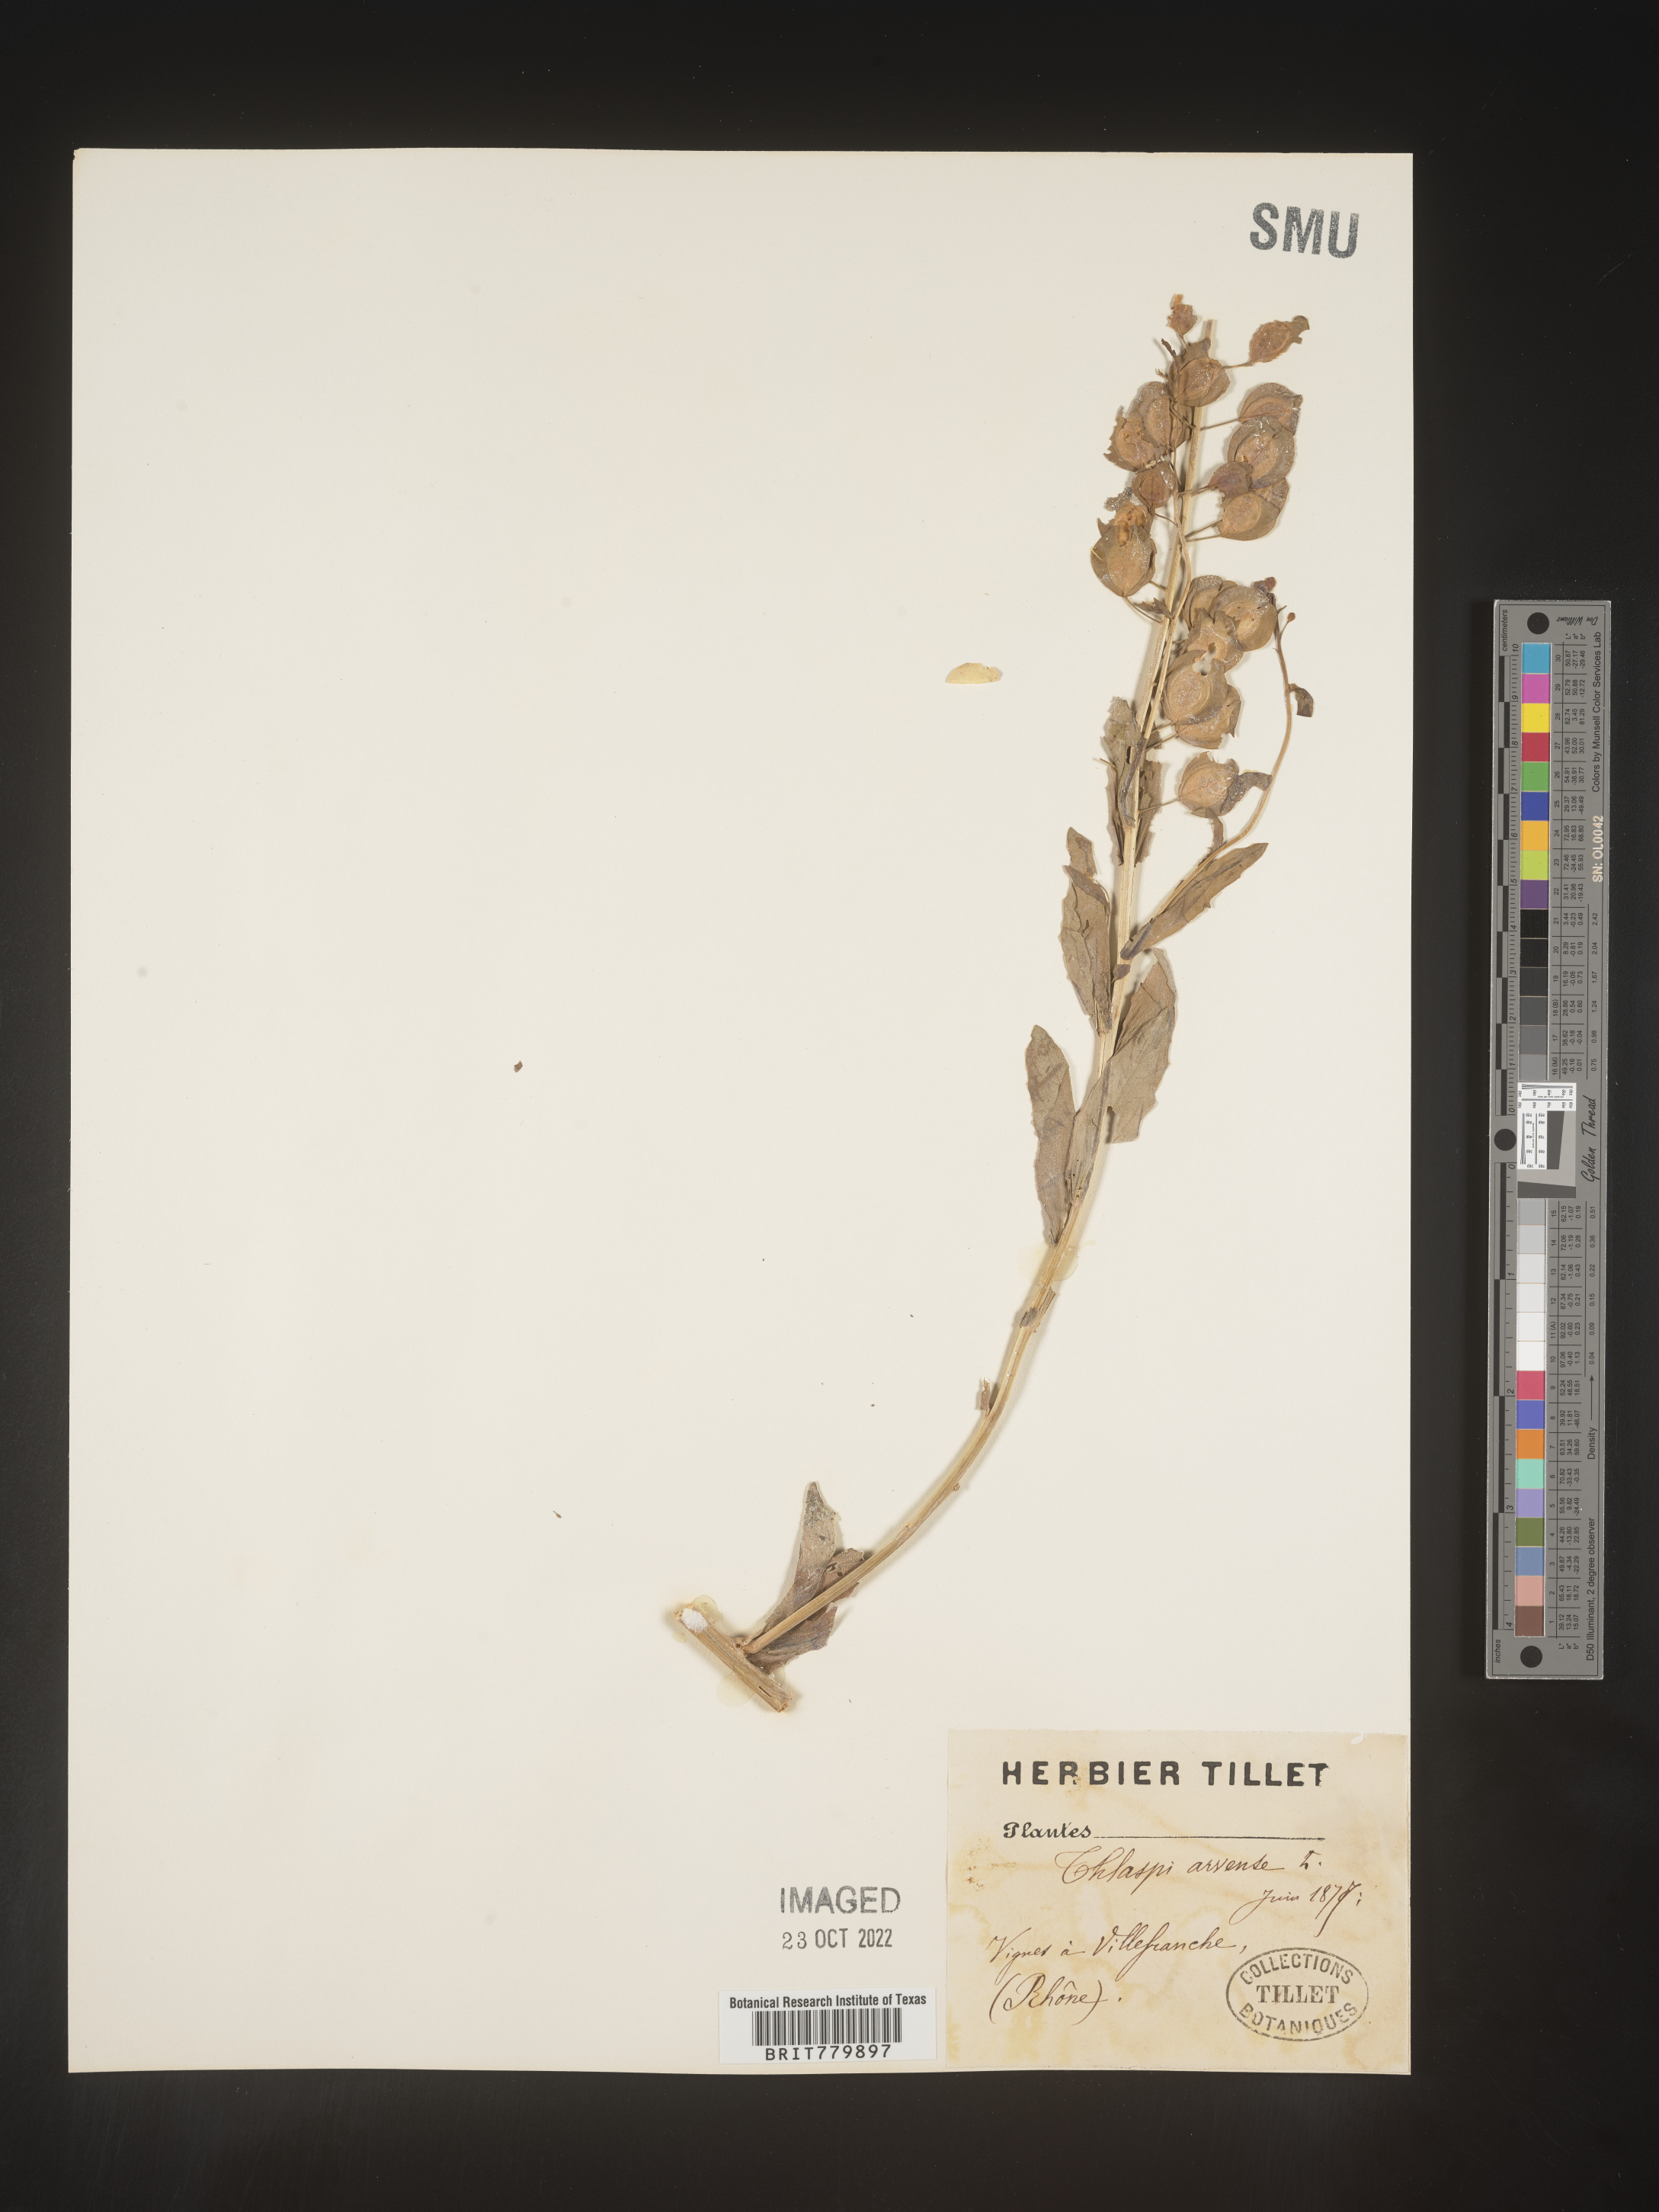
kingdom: Plantae
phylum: Tracheophyta
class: Magnoliopsida
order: Brassicales
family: Brassicaceae
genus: Thlaspi
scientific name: Thlaspi
